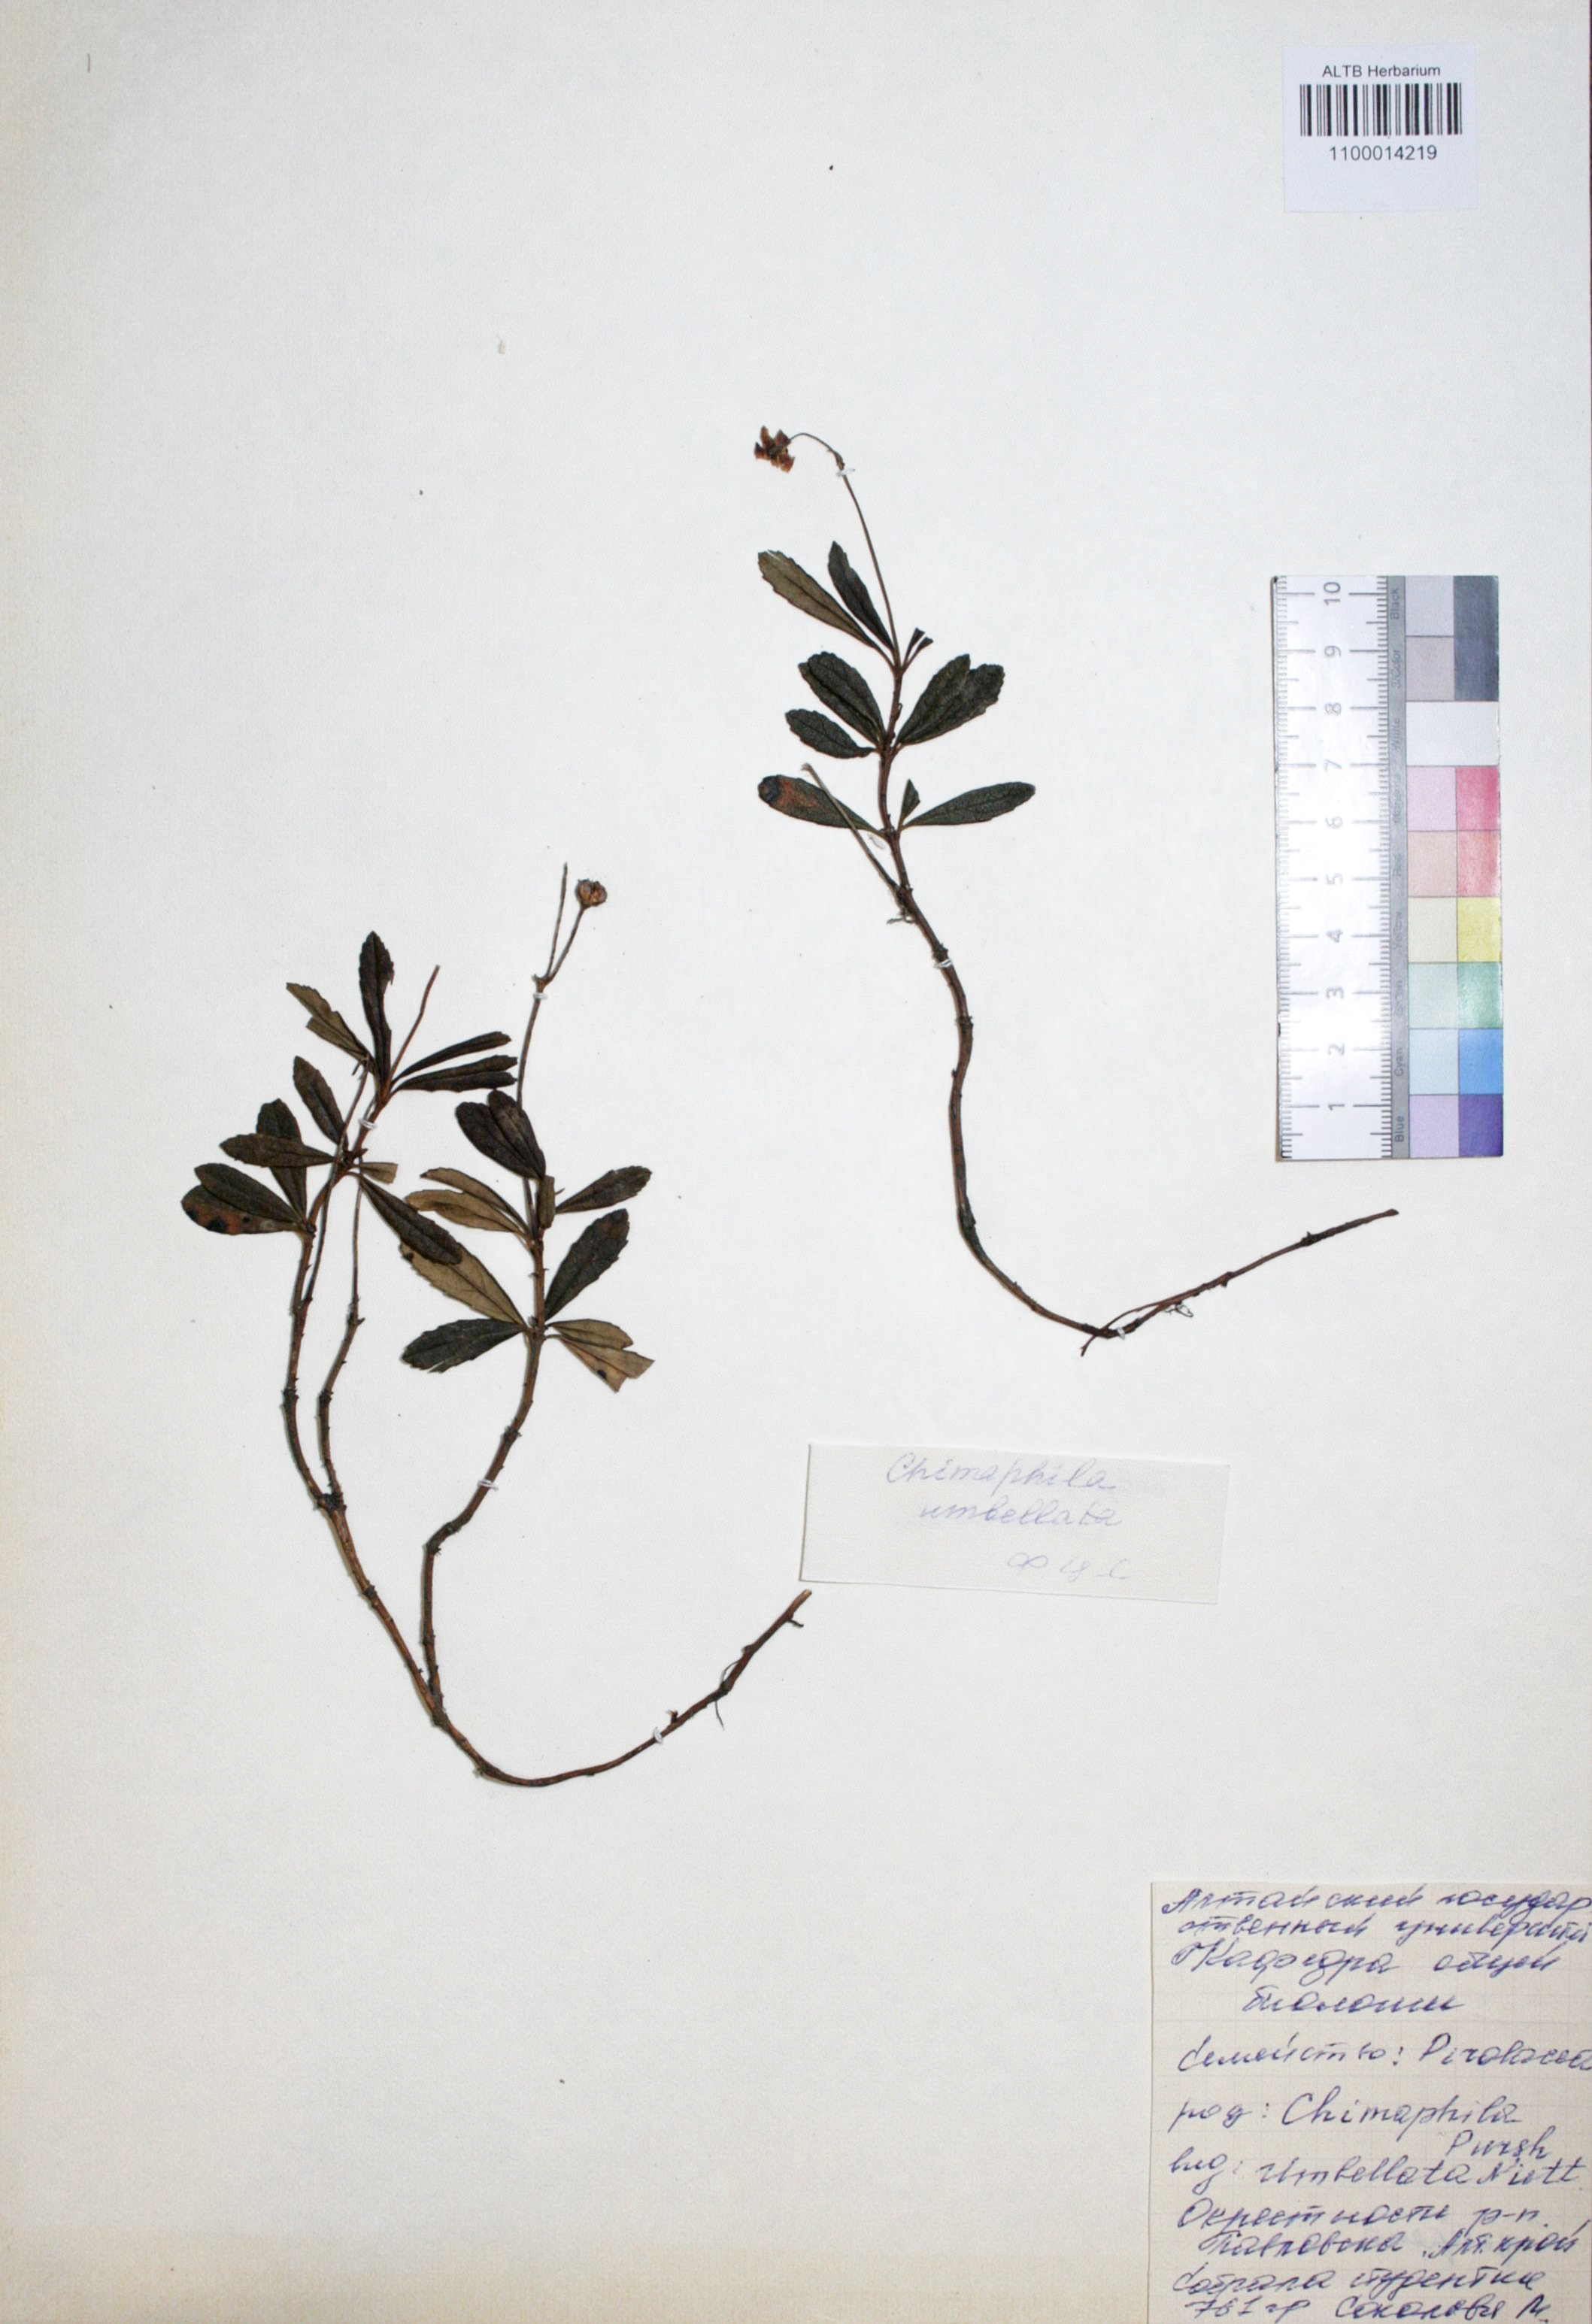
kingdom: Plantae
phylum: Tracheophyta
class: Magnoliopsida
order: Ericales
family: Ericaceae
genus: Chimaphila
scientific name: Chimaphila umbellata
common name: Pipsissewa
